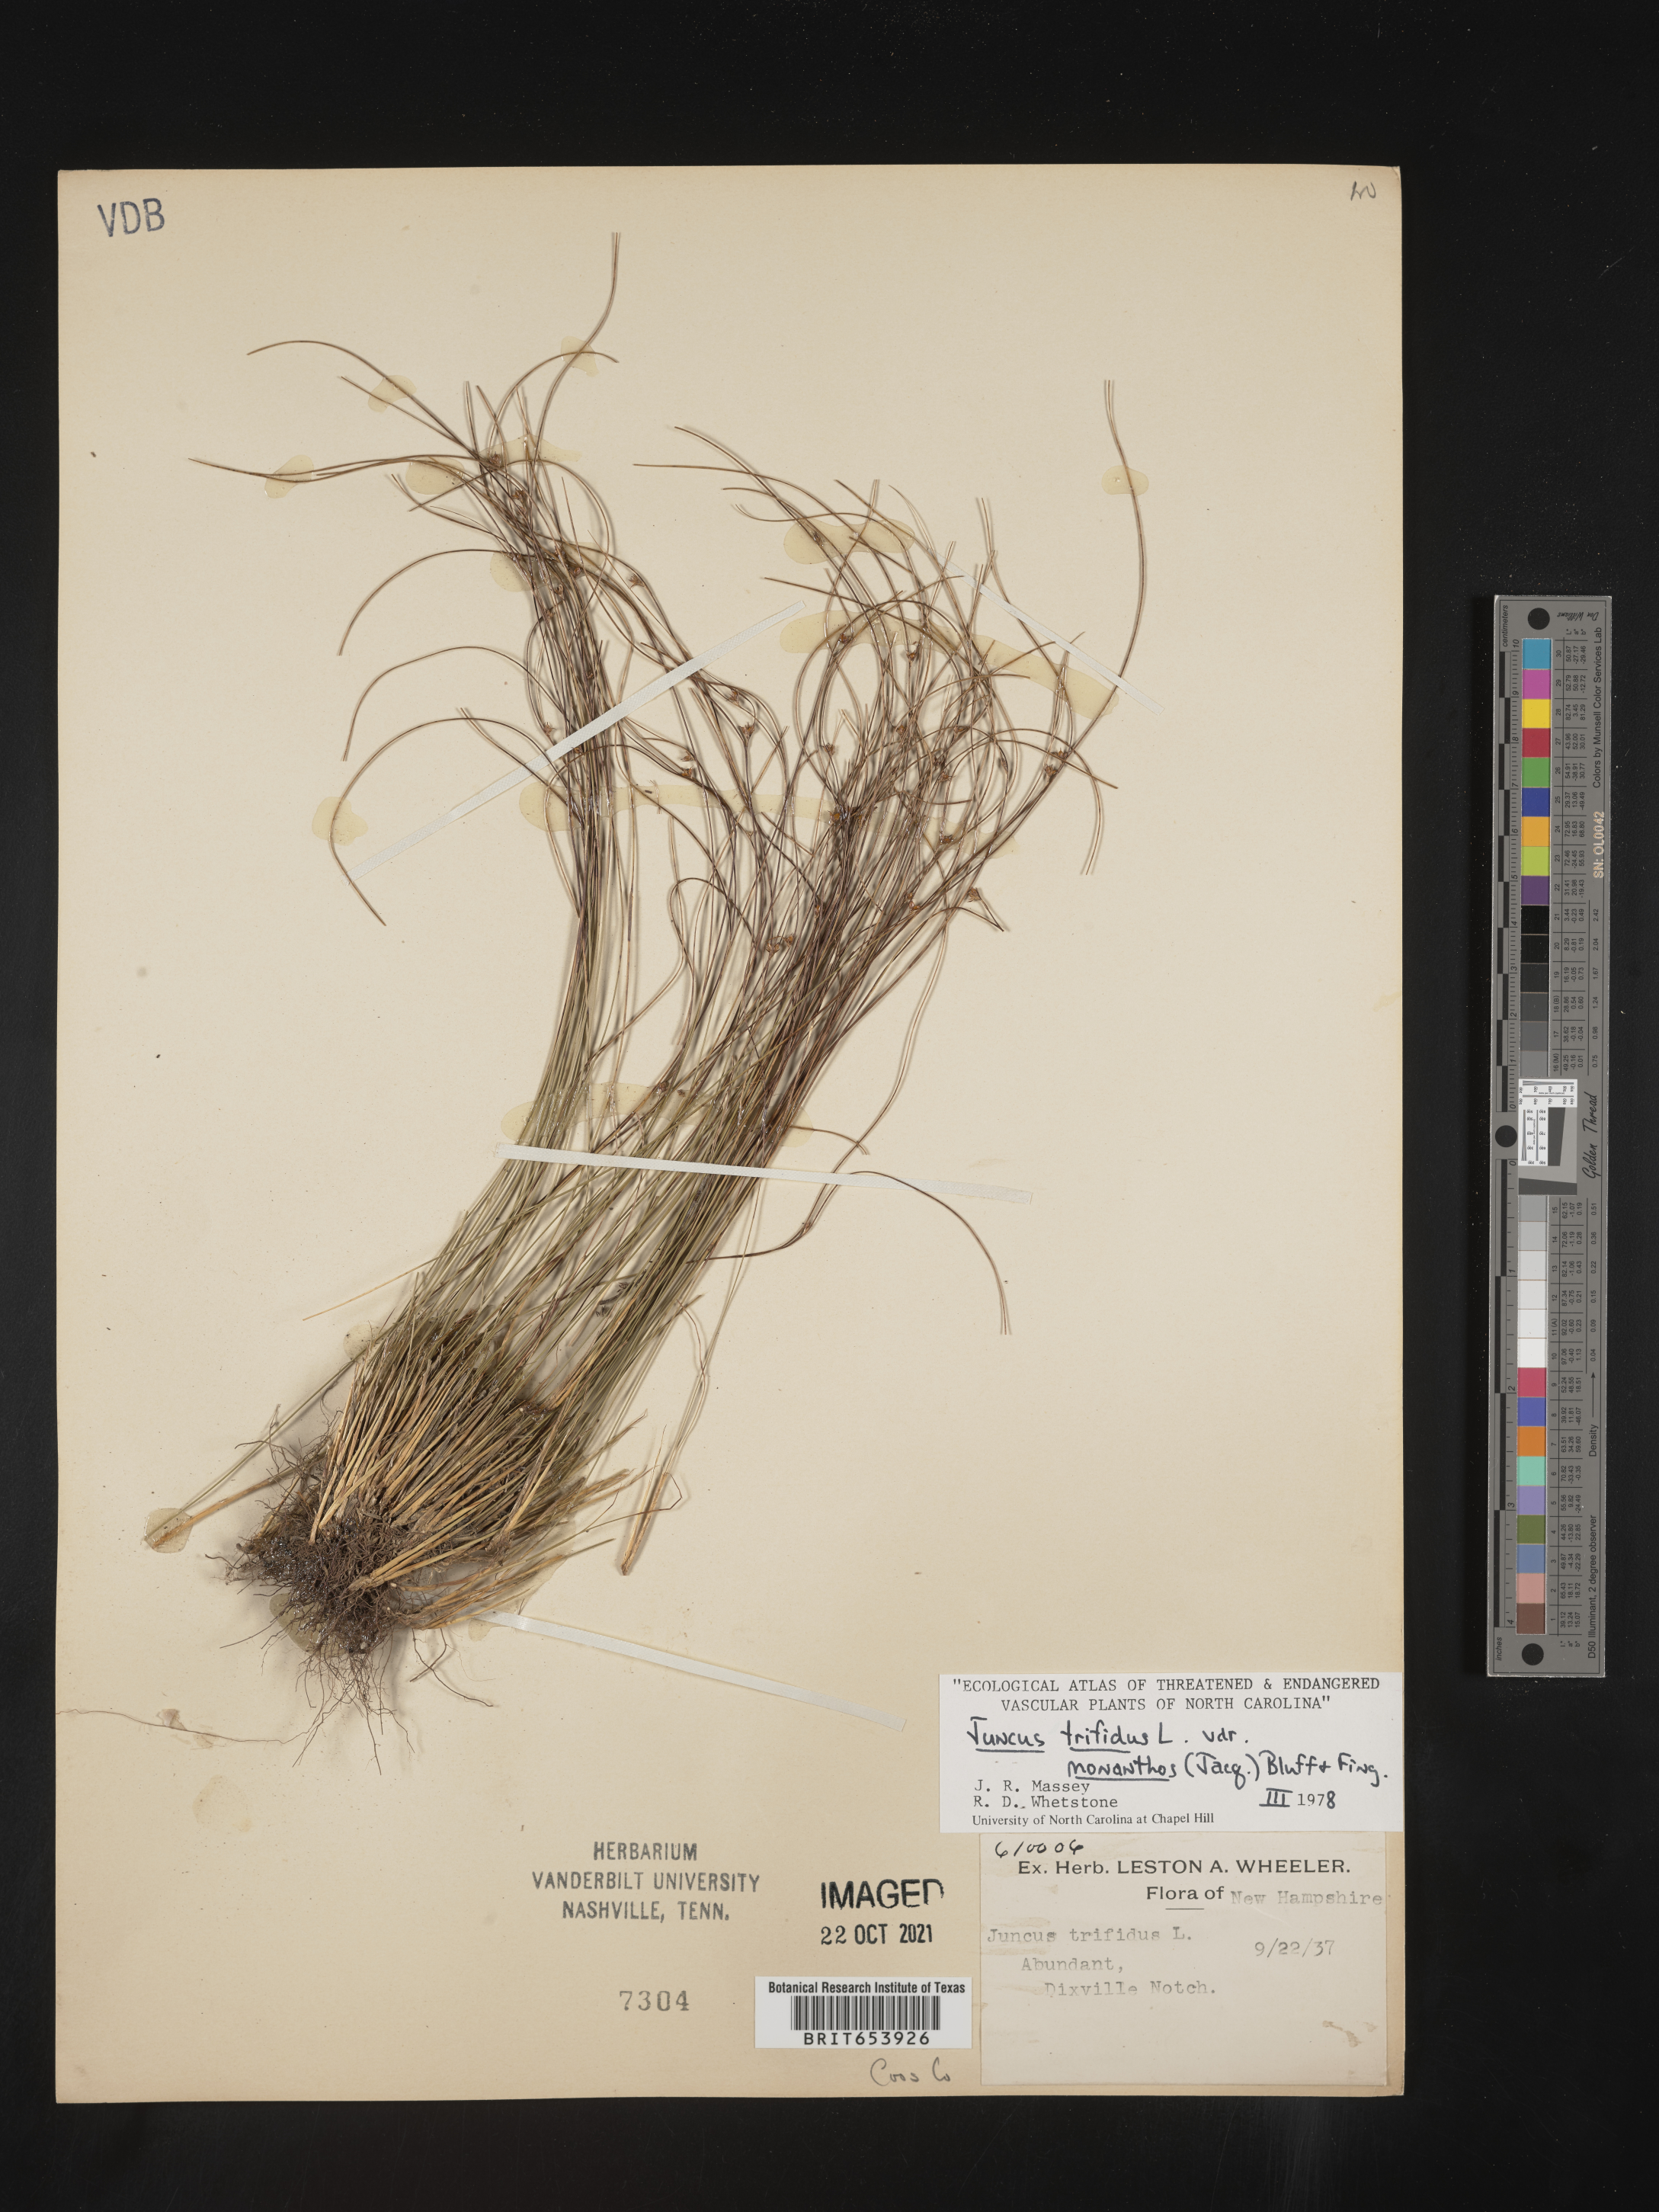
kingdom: Plantae
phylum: Tracheophyta
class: Liliopsida
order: Poales
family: Juncaceae
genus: Oreojuncus
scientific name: Oreojuncus trifidus
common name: Highland rush
